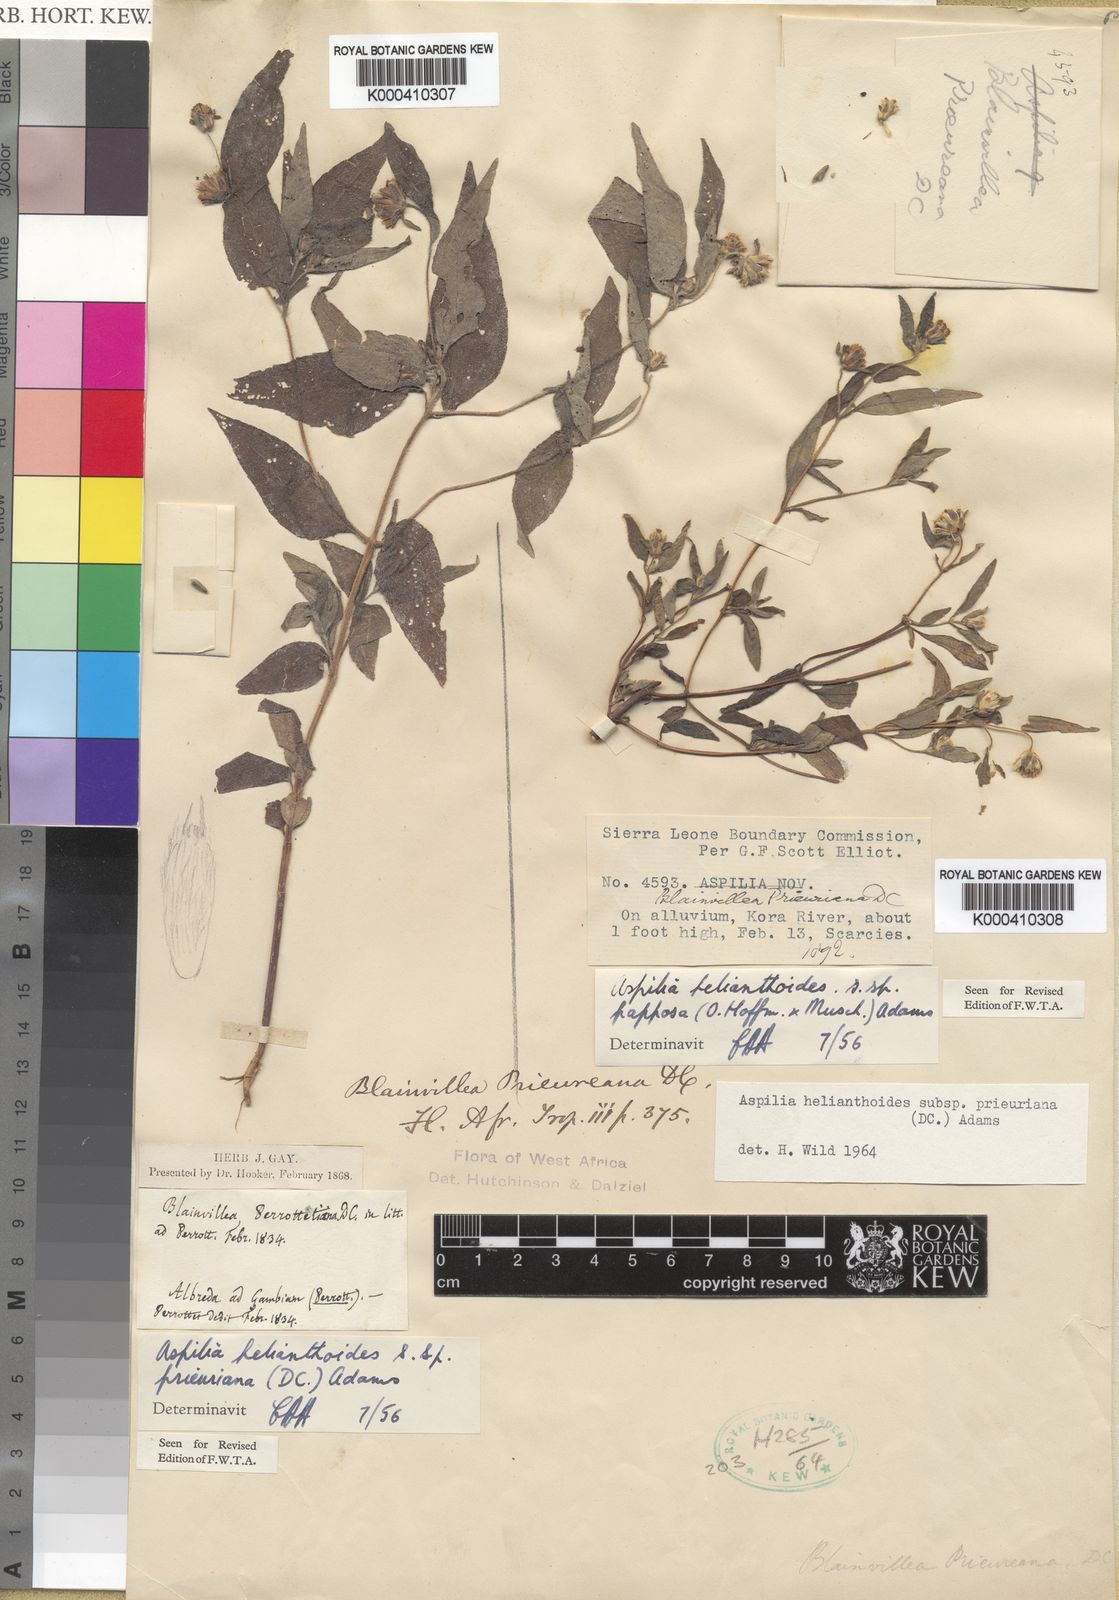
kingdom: Plantae
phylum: Tracheophyta
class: Magnoliopsida
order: Asterales
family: Asteraceae
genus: Aspilia
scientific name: Aspilia ciliata
